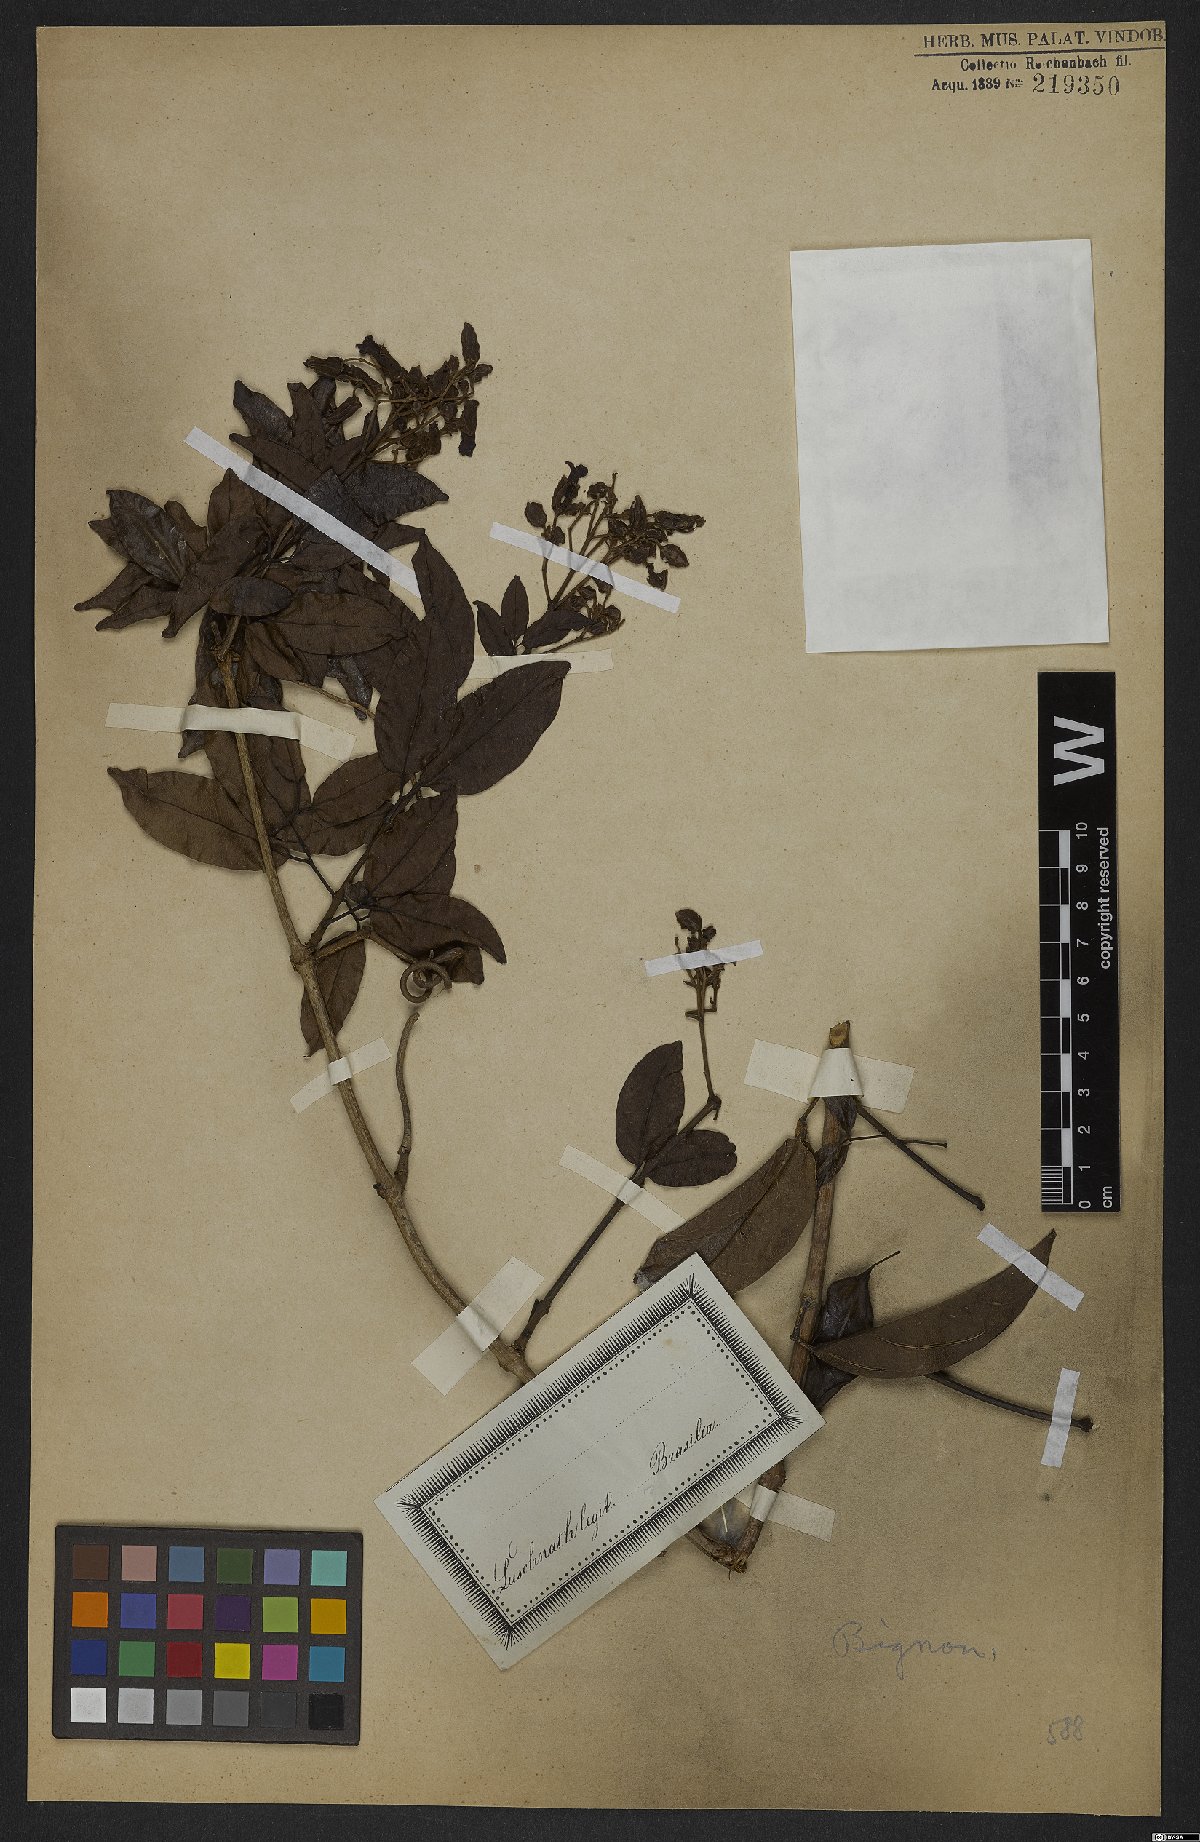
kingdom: Plantae
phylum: Tracheophyta
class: Magnoliopsida
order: Lamiales
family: Bignoniaceae
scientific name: Bignoniaceae
